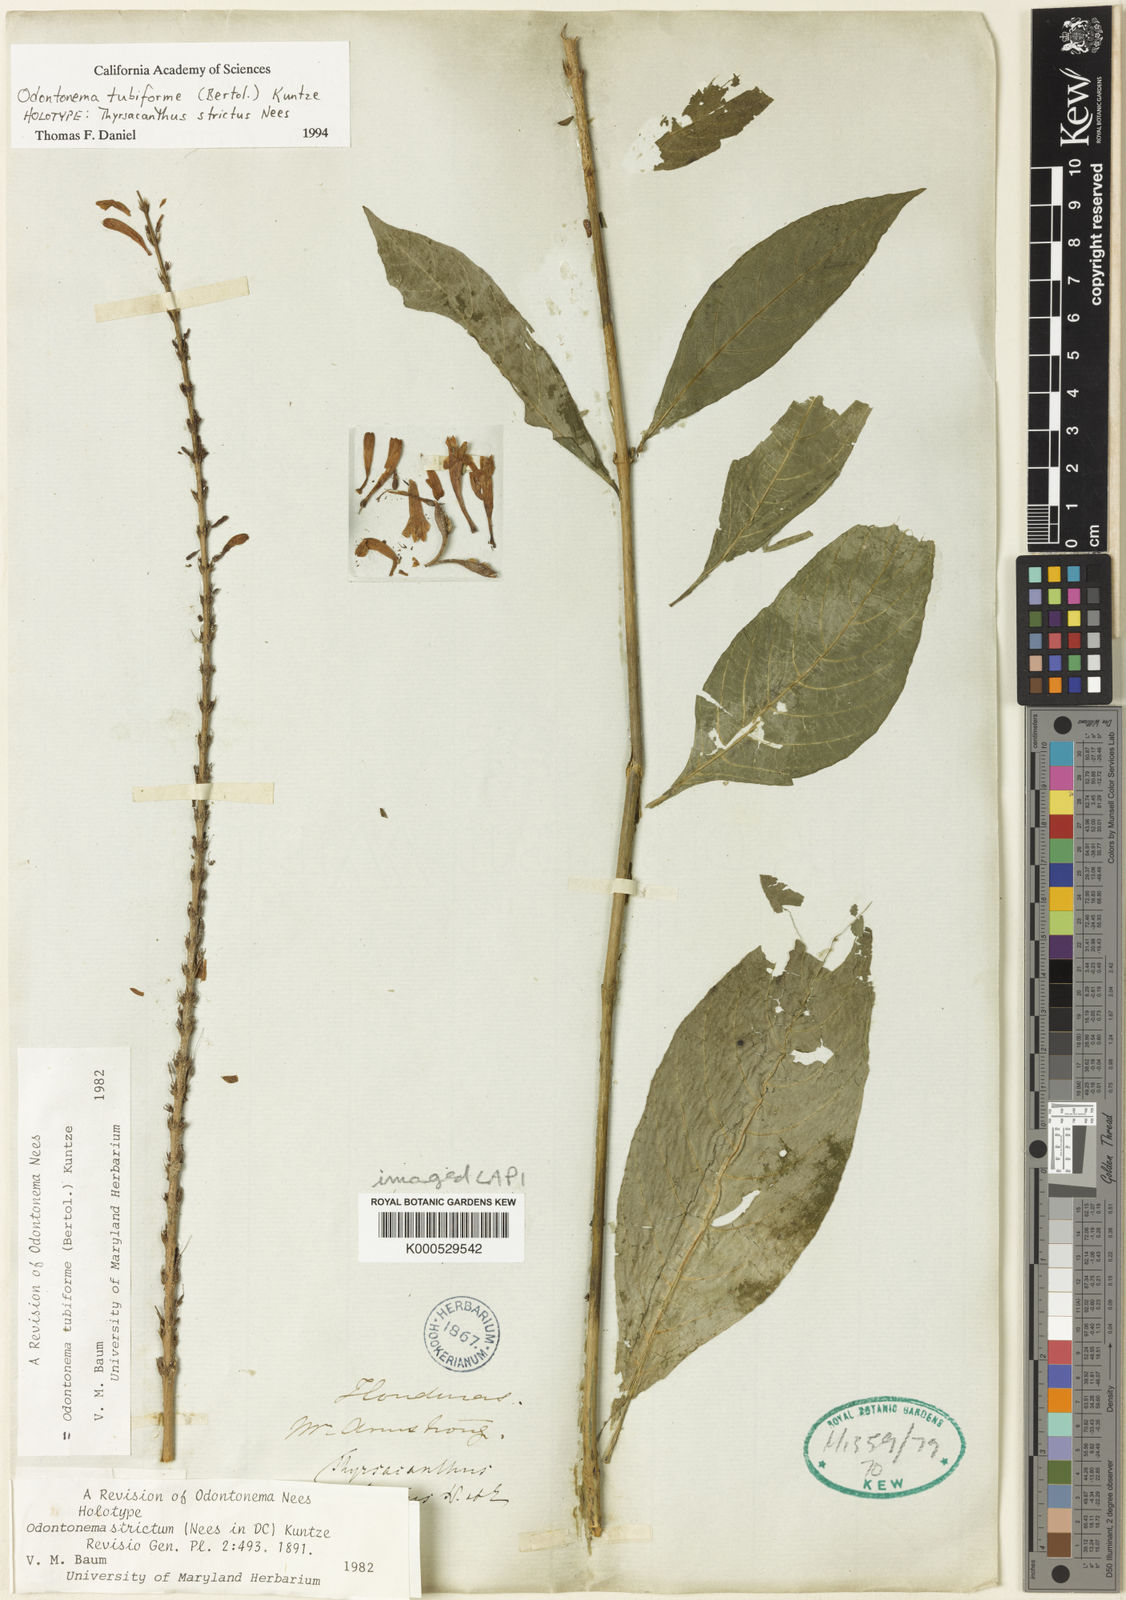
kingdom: Plantae
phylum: Tracheophyta
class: Magnoliopsida
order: Lamiales
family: Acanthaceae
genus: Odontonema
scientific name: Odontonema tubaeforme
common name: Firespike
